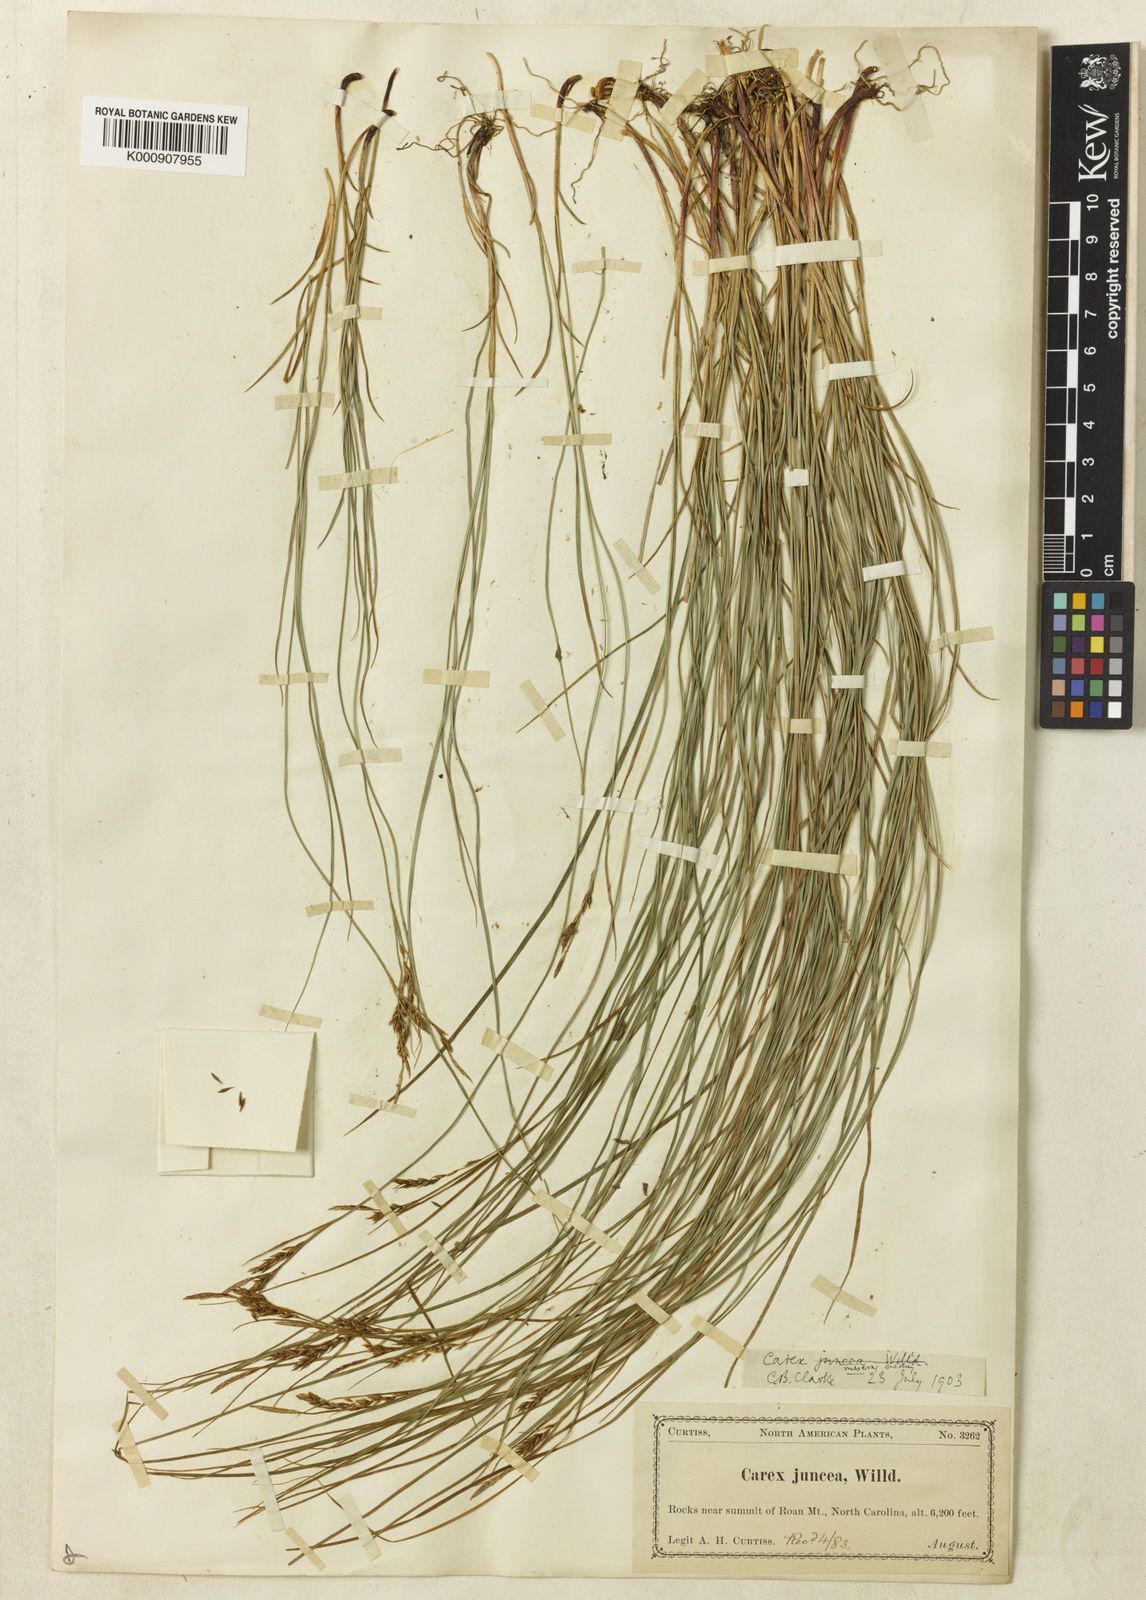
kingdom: Plantae
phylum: Tracheophyta
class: Liliopsida
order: Poales
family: Cyperaceae
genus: Carex
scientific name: Carex misera
